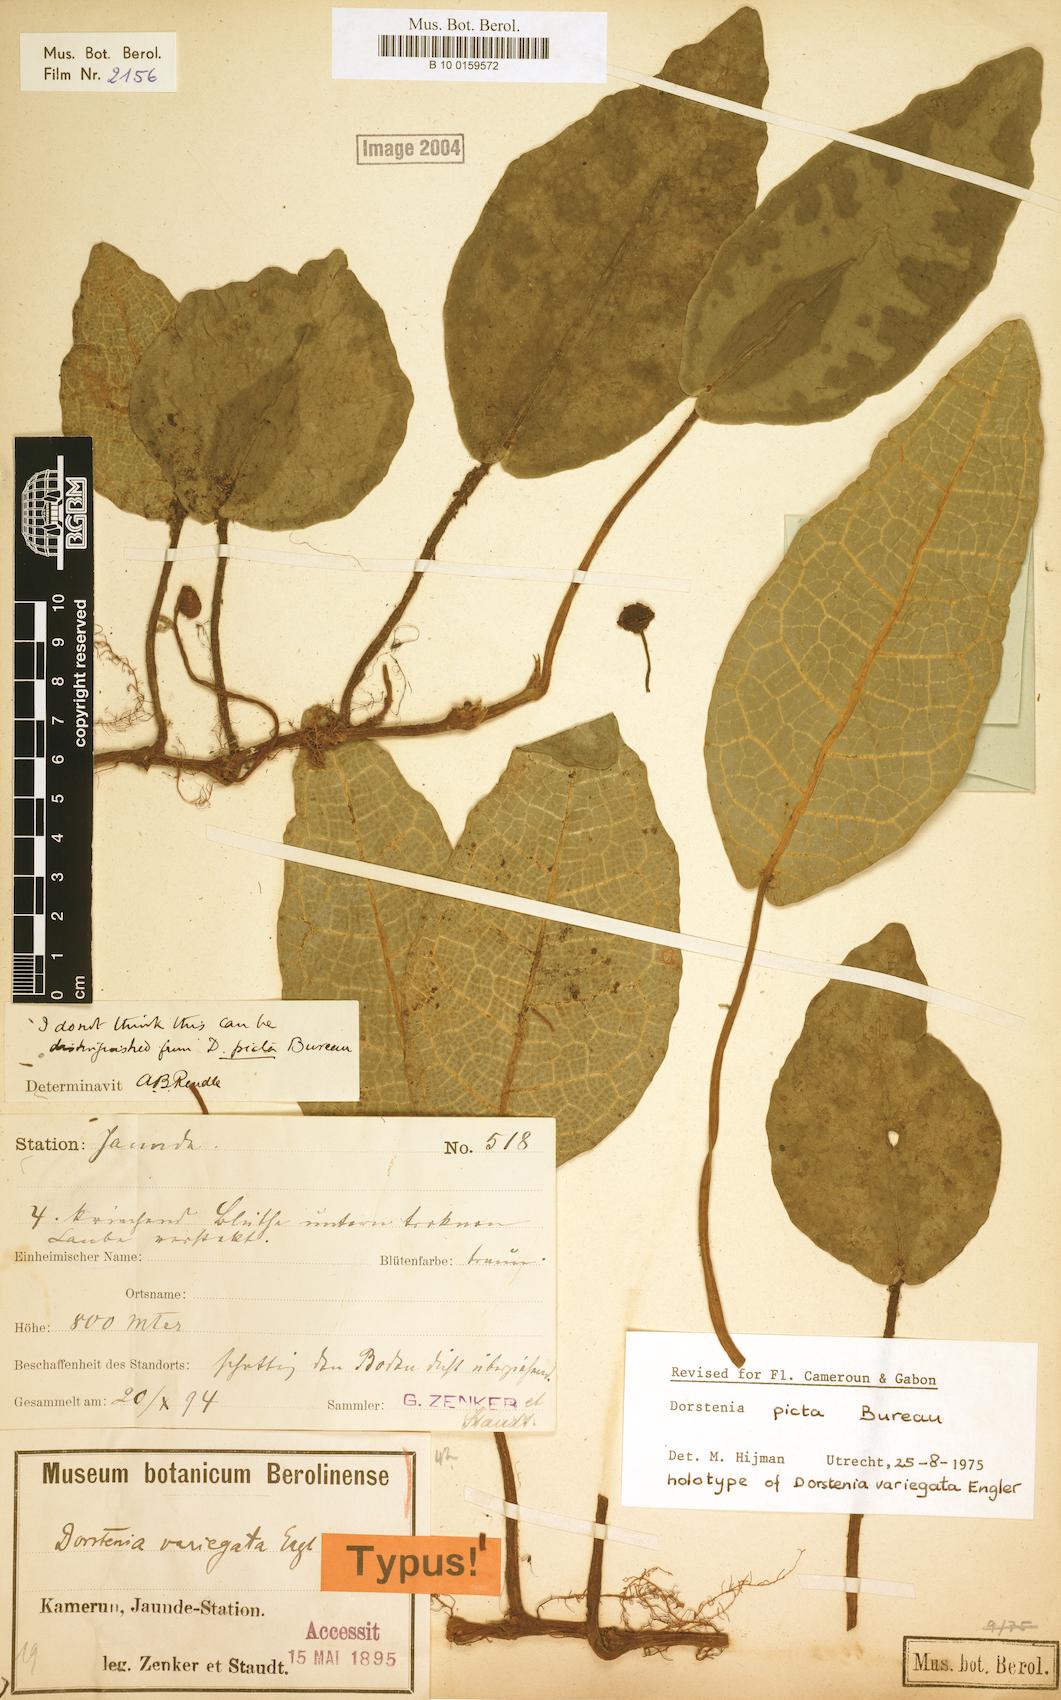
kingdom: Plantae
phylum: Tracheophyta
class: Magnoliopsida
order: Rosales
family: Moraceae
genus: Dorstenia
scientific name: Dorstenia picta
